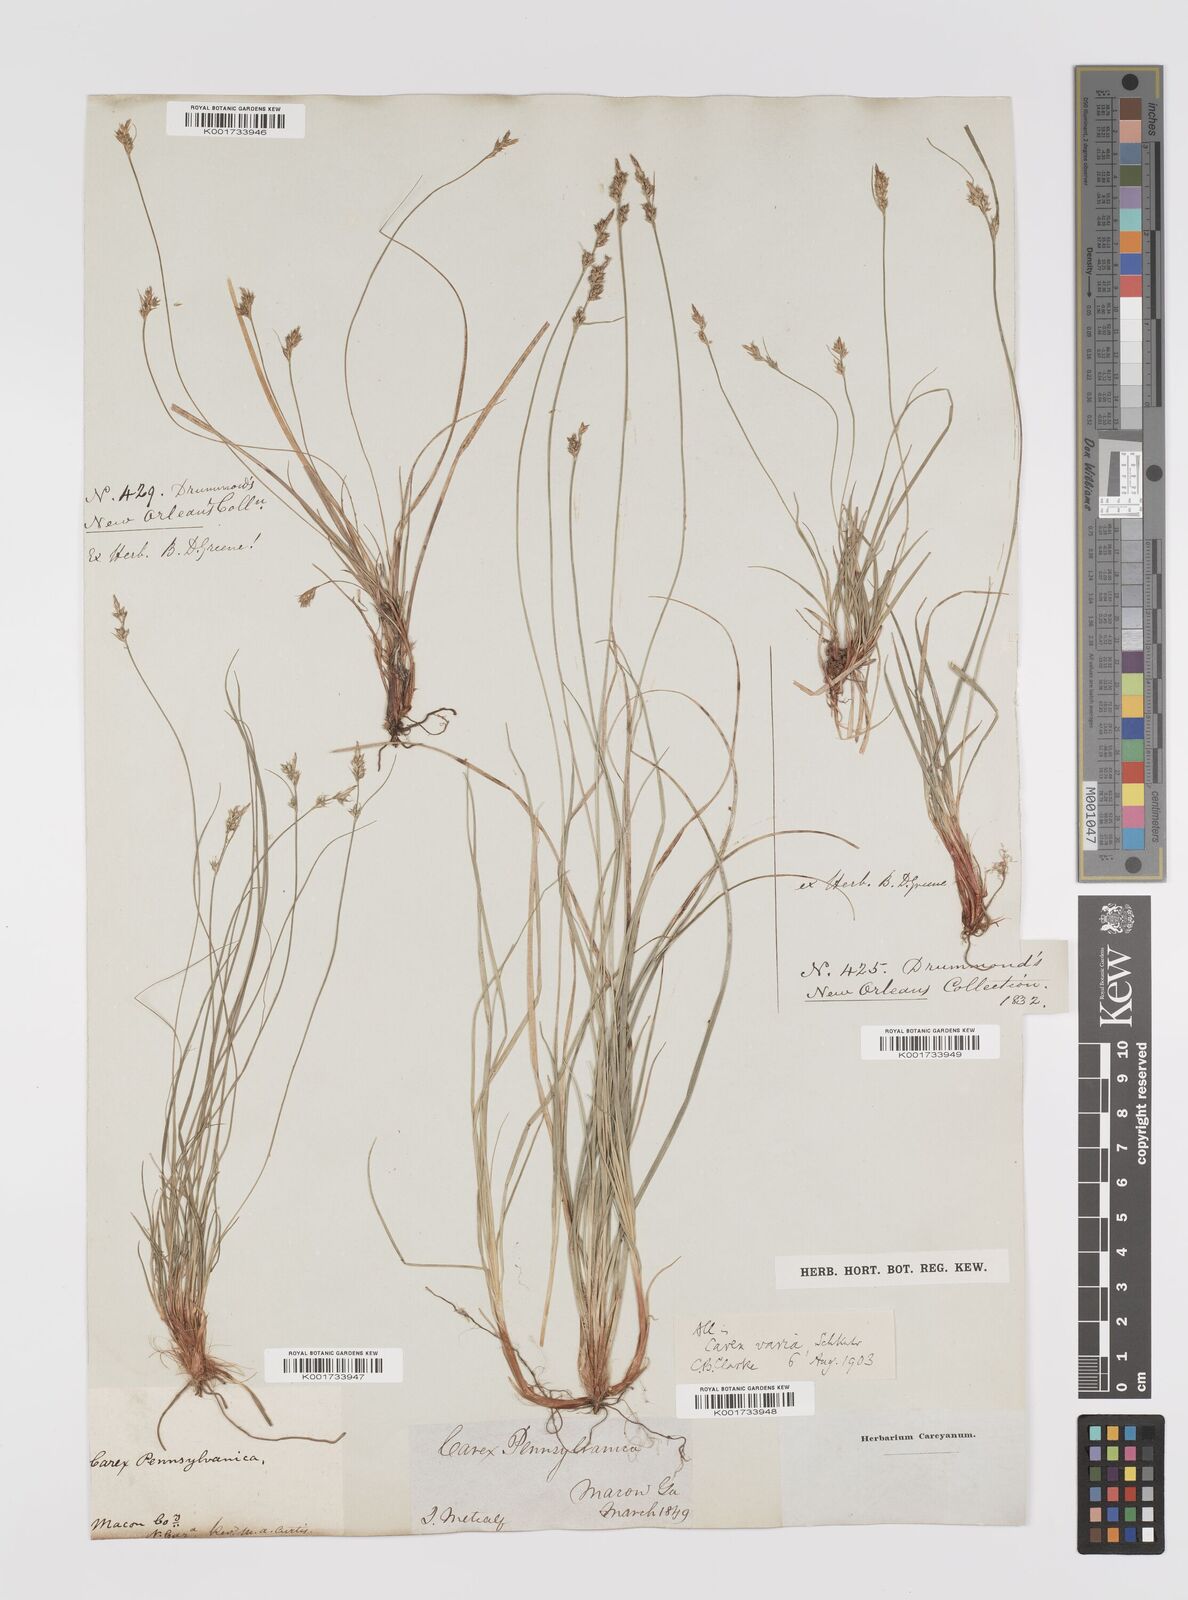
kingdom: Plantae
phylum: Tracheophyta
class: Liliopsida
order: Poales
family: Cyperaceae
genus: Carex
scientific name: Carex albicans
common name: Bellow-beaked sedge
